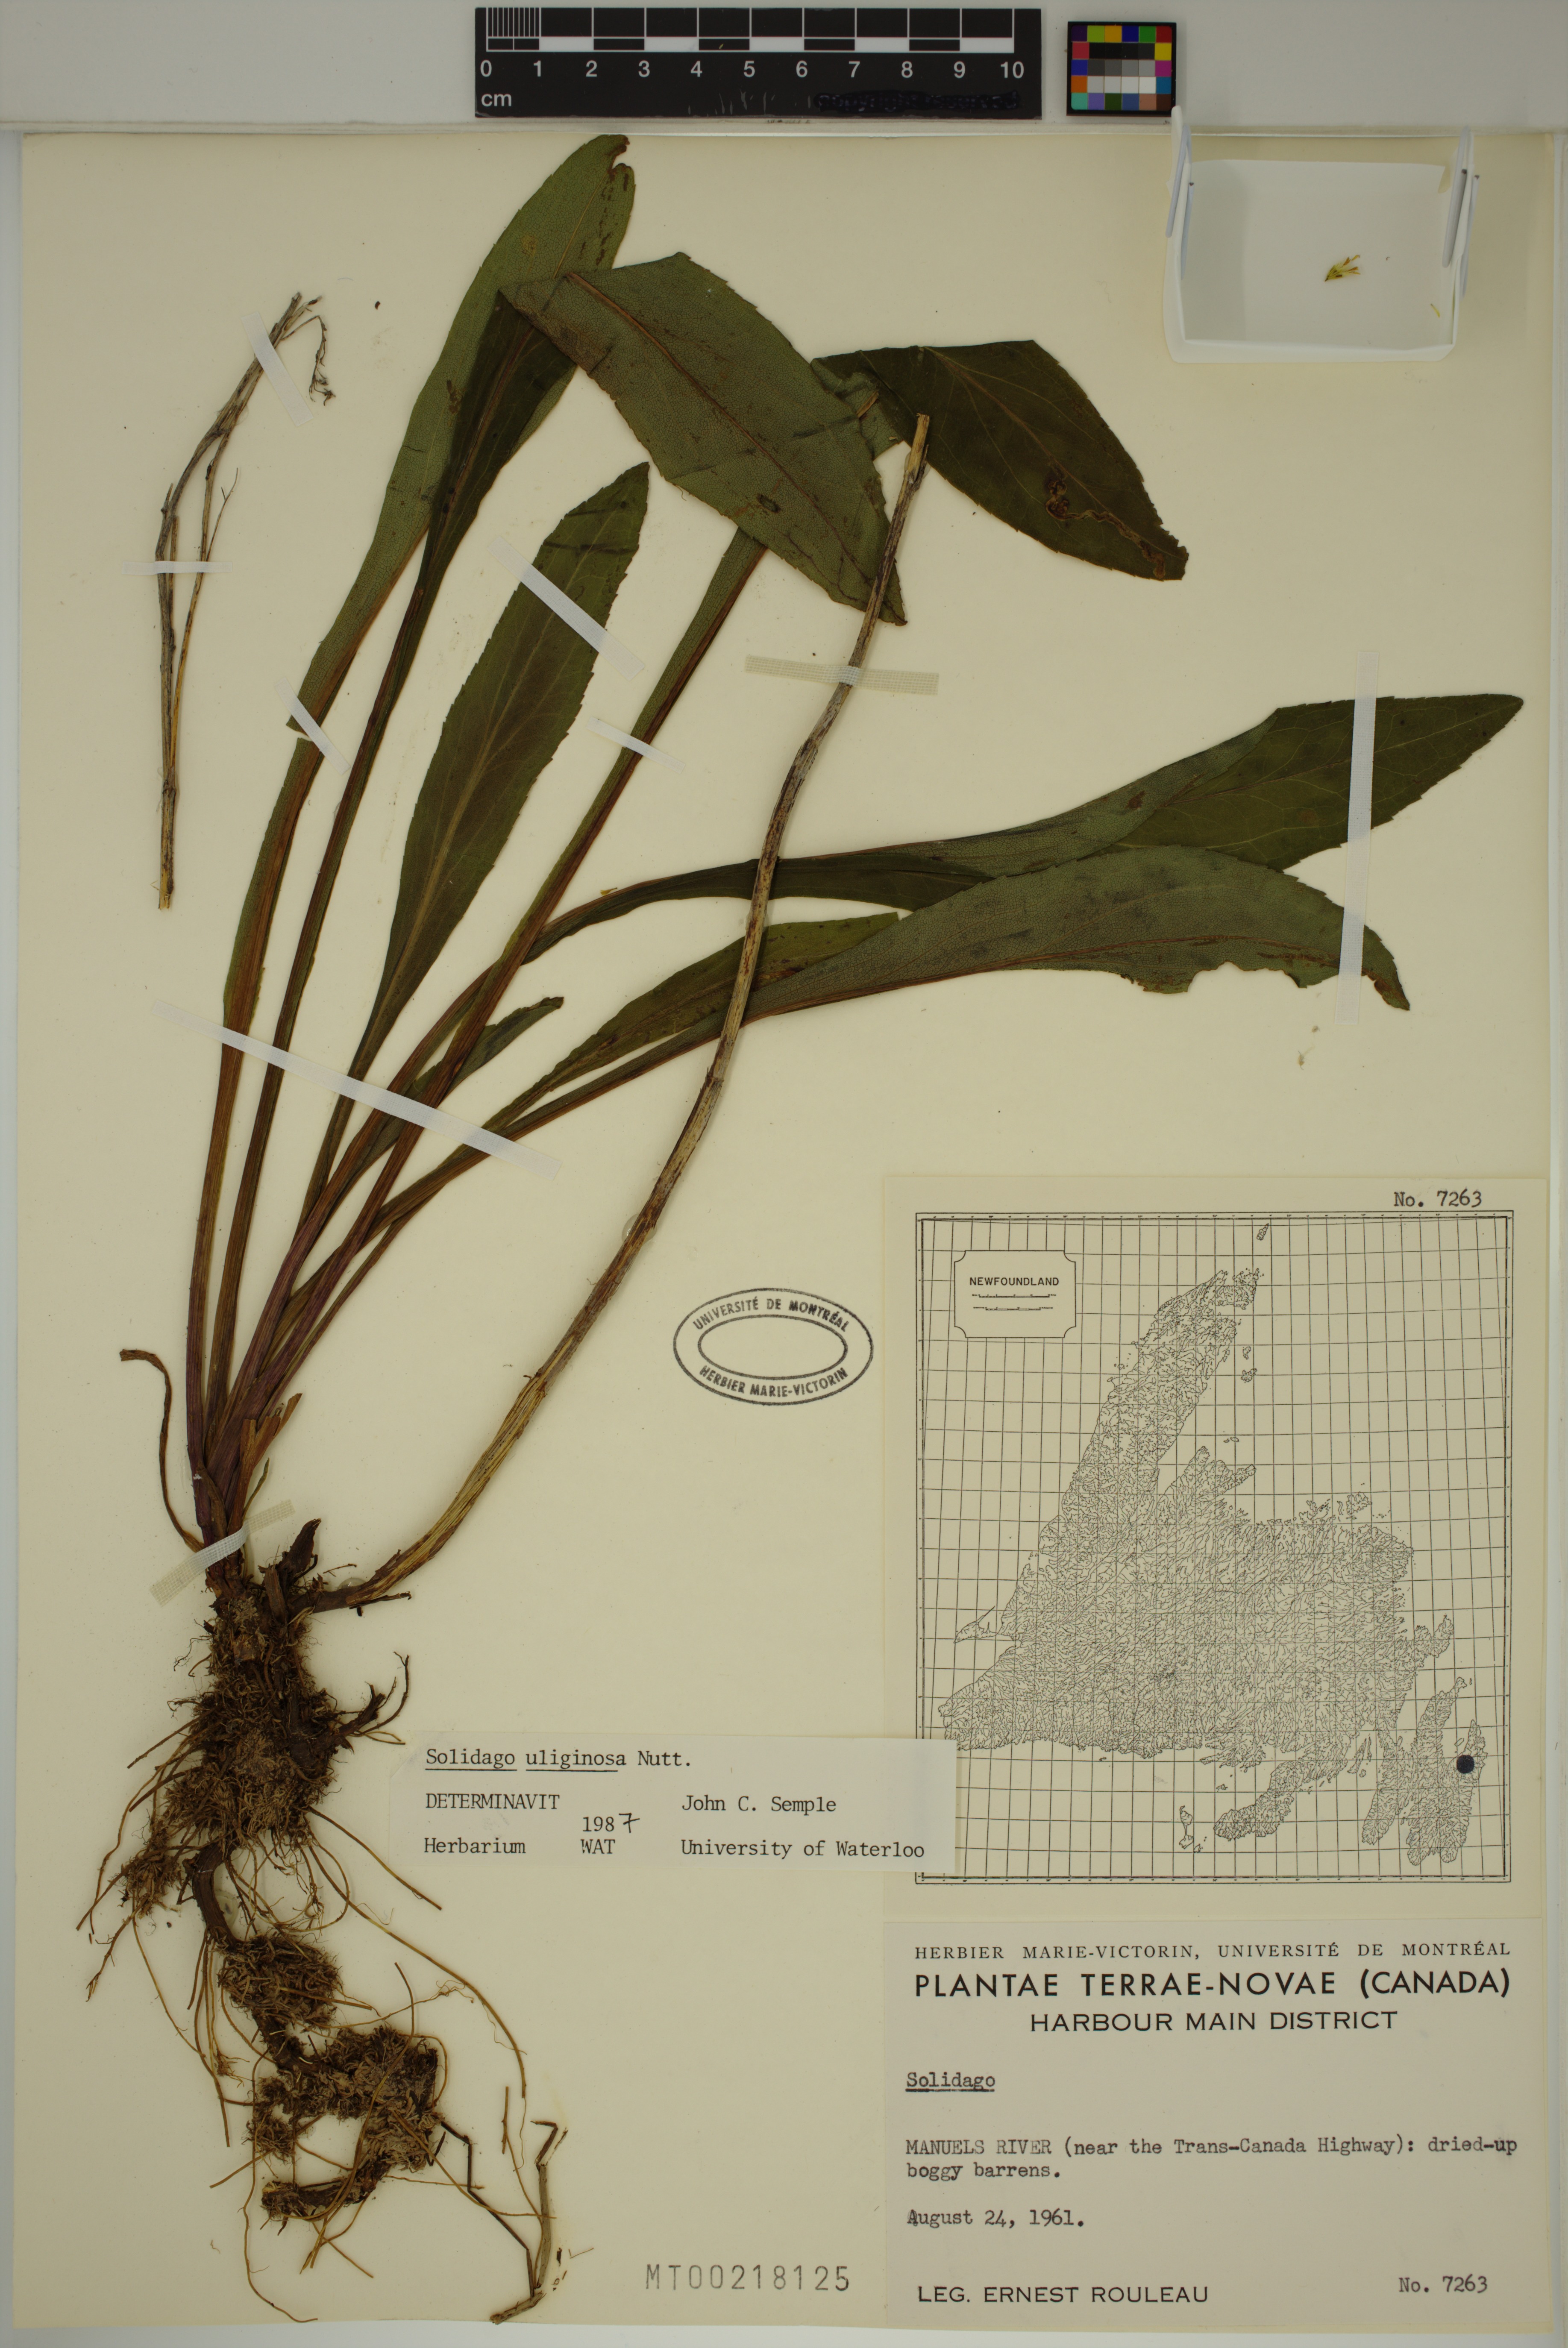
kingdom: Plantae
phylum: Tracheophyta
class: Magnoliopsida
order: Asterales
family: Asteraceae
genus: Solidago
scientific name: Solidago uliginosa
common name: Bog goldenrod
